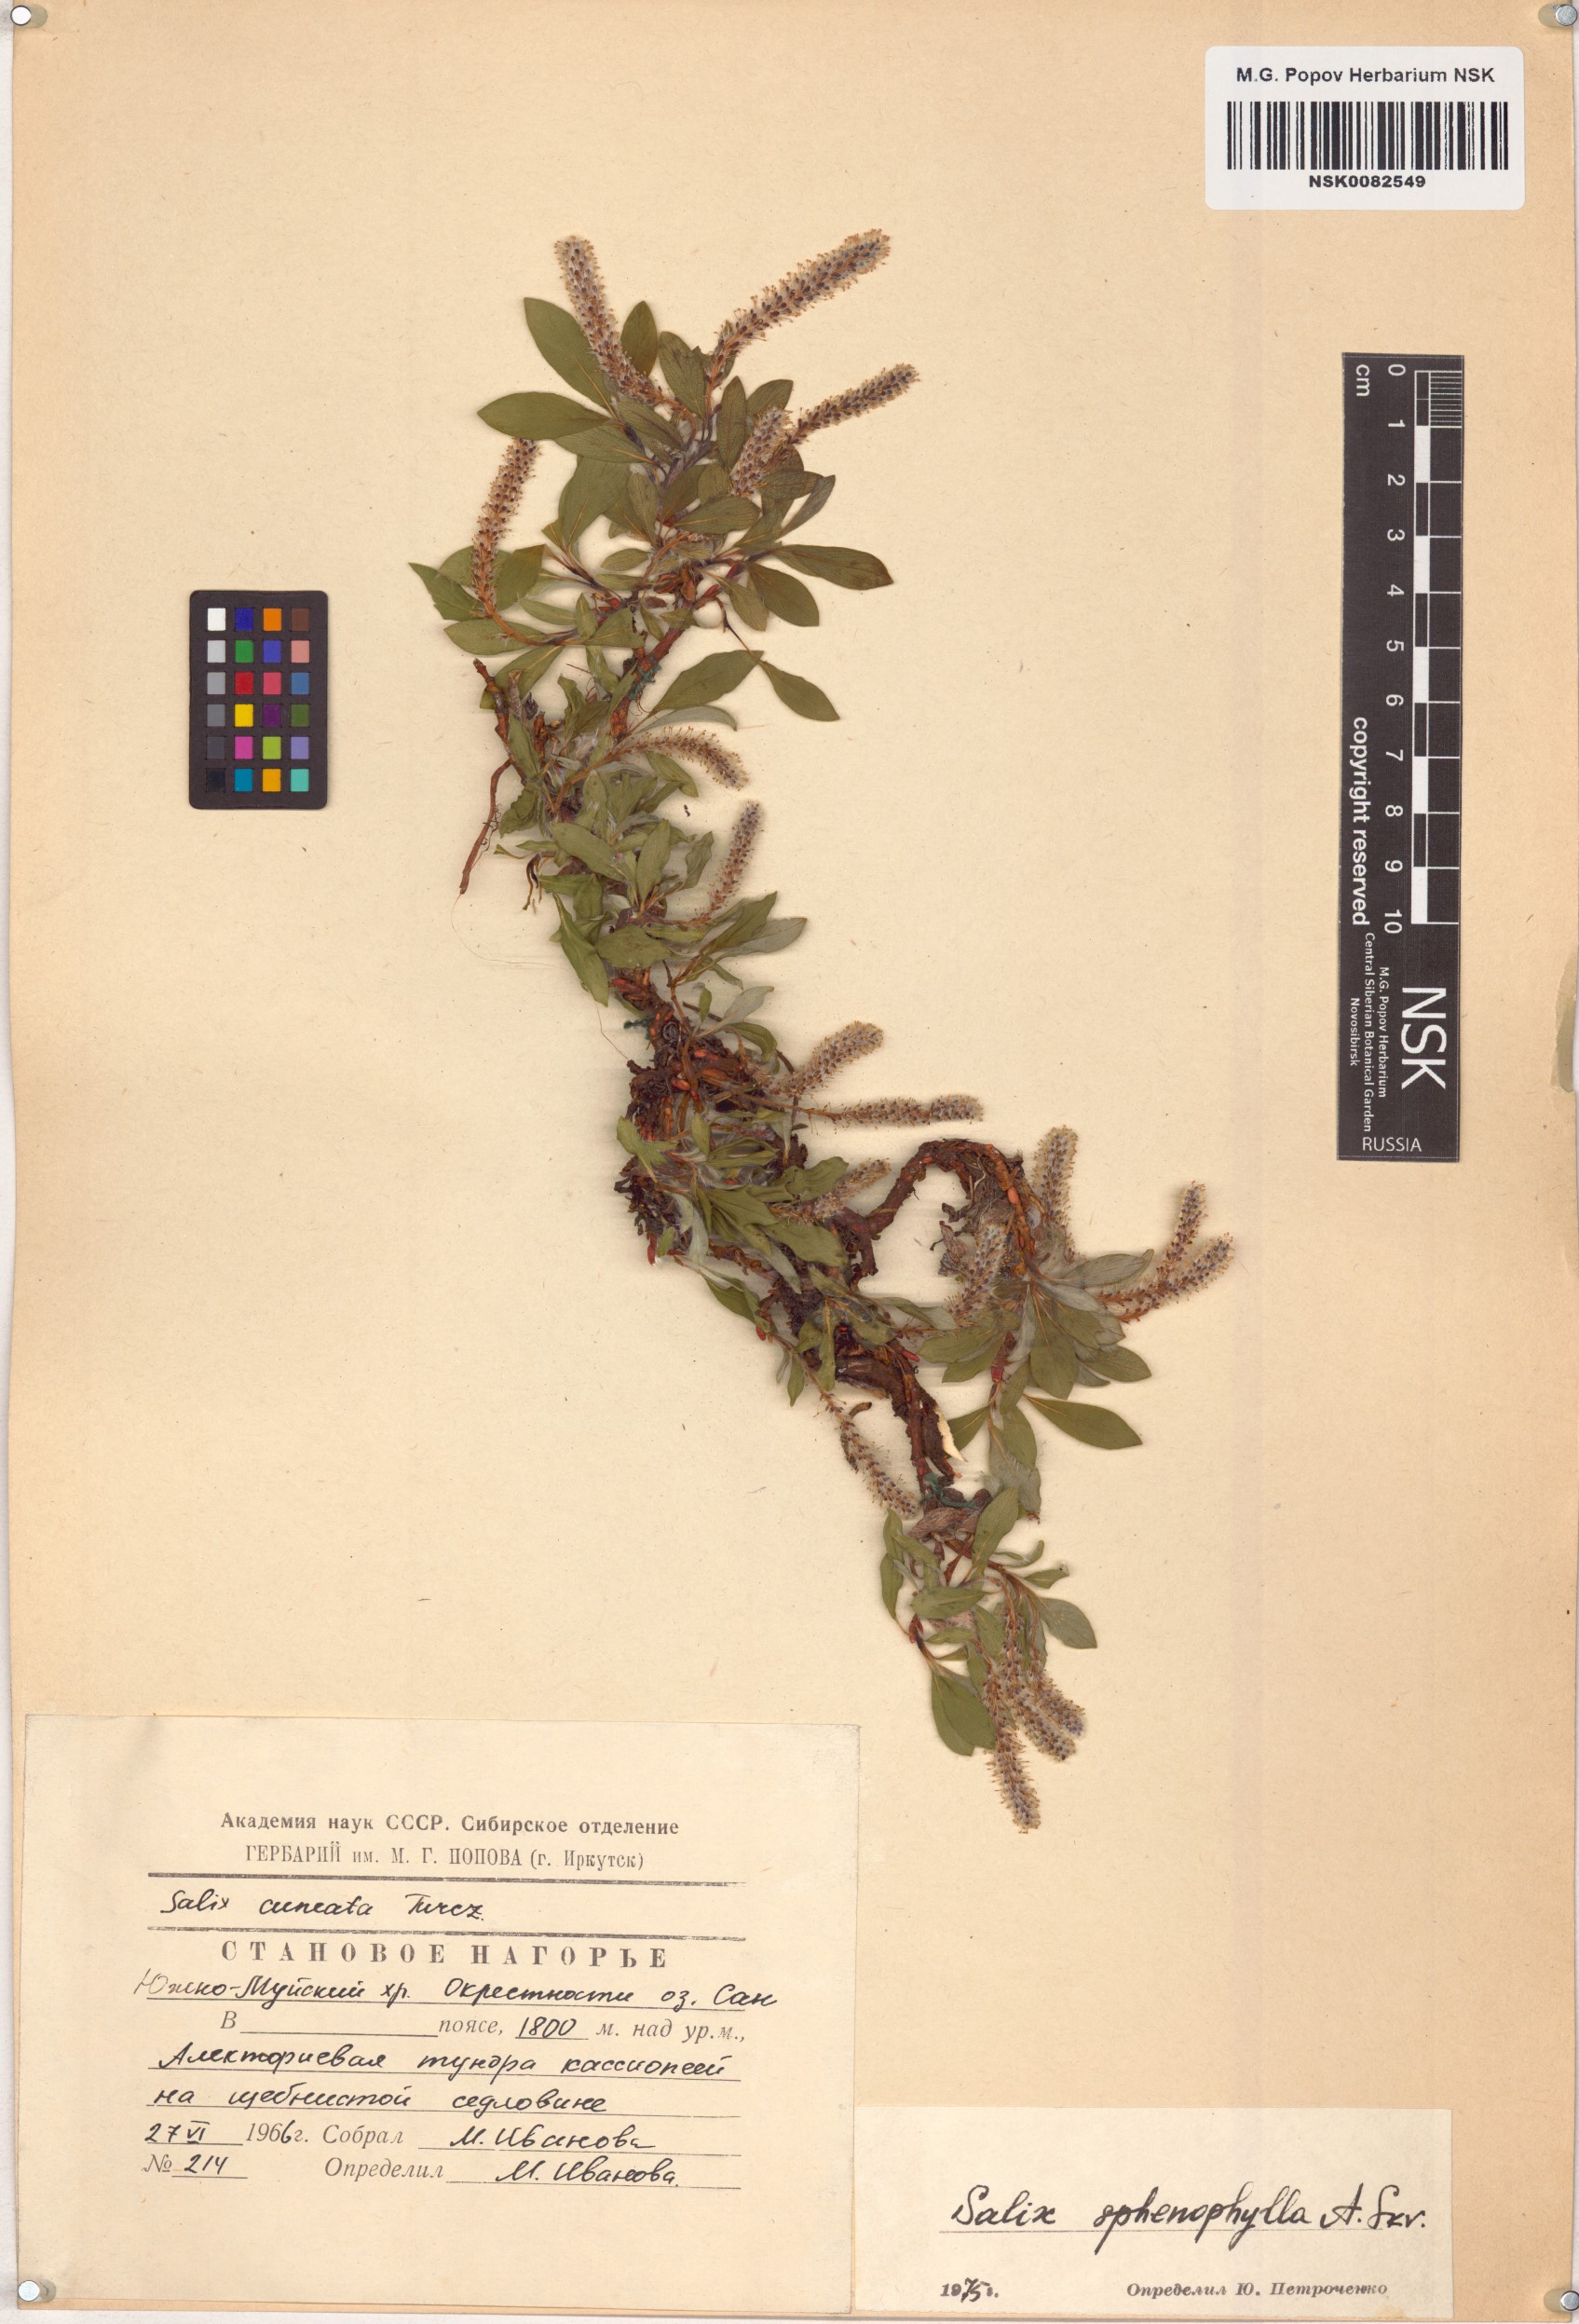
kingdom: Plantae
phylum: Tracheophyta
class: Magnoliopsida
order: Malpighiales
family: Salicaceae
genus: Salix
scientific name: Salix sphenophylla
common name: Wedge-leaved willow
